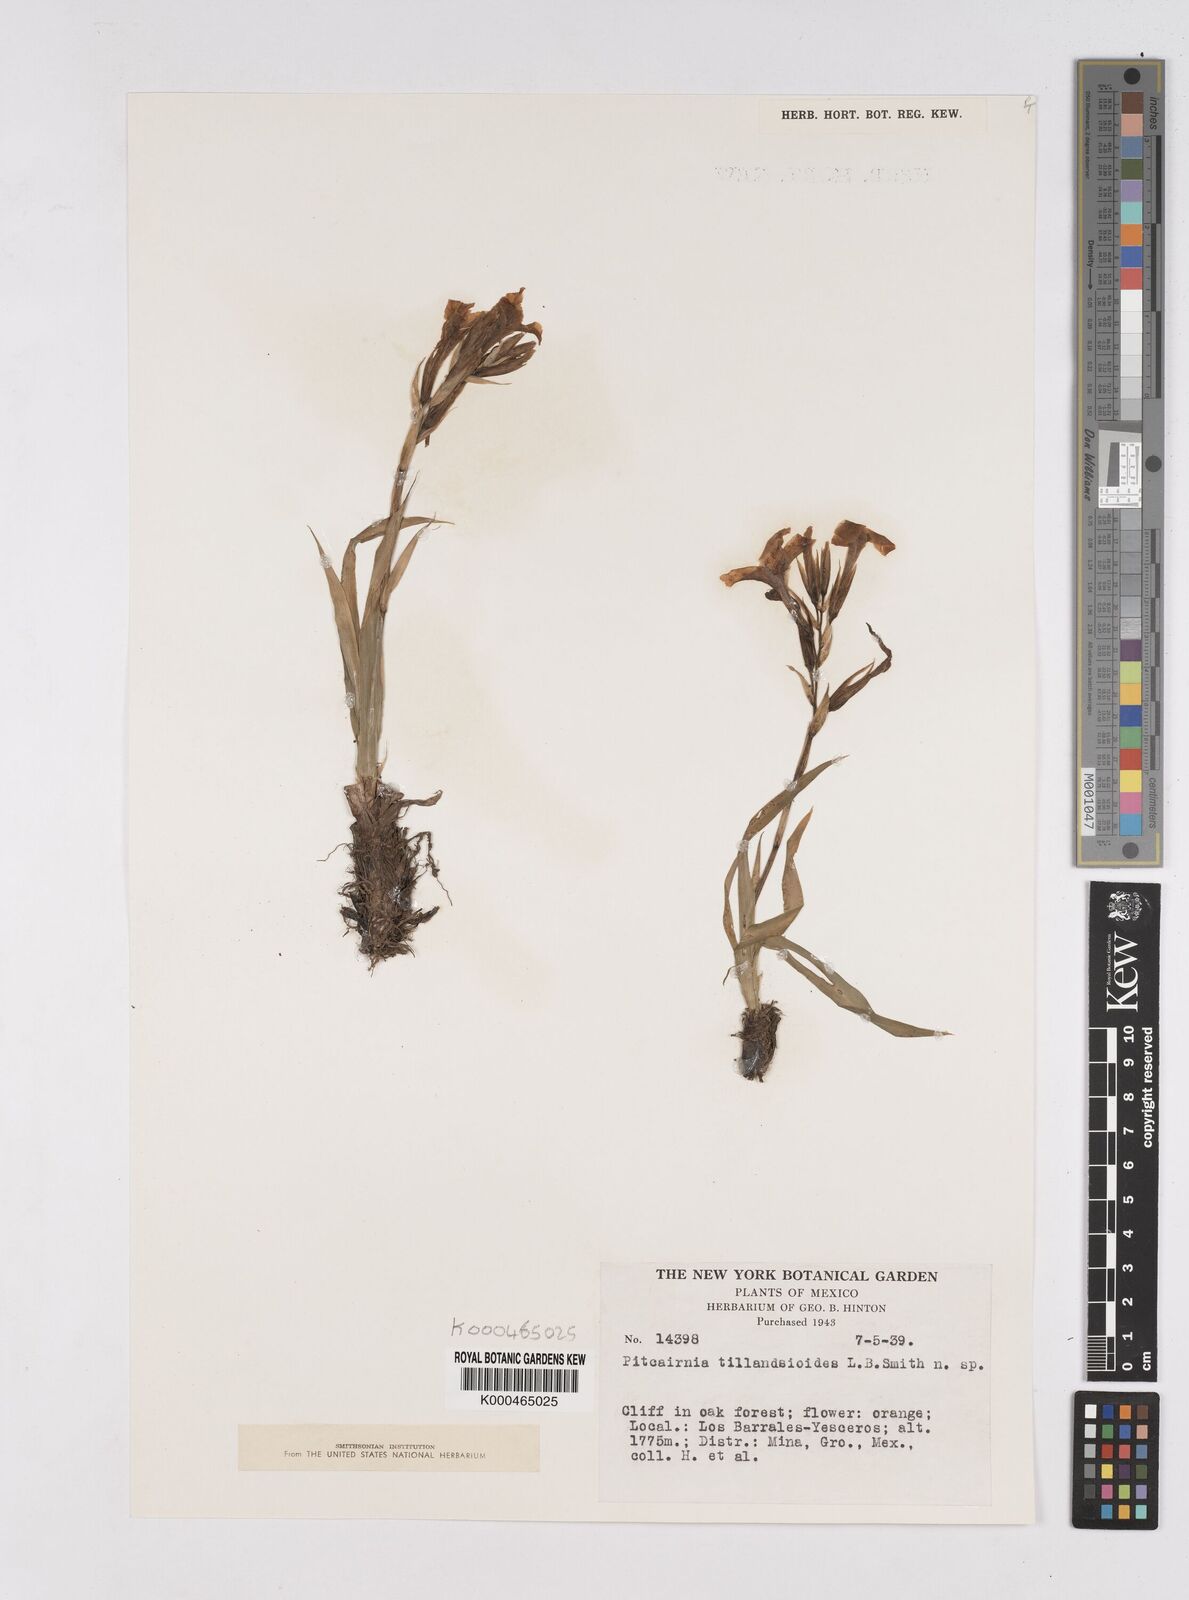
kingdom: Plantae
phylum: Tracheophyta
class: Liliopsida
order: Poales
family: Bromeliaceae
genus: Pitcairnia
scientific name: Pitcairnia tillandsioides
